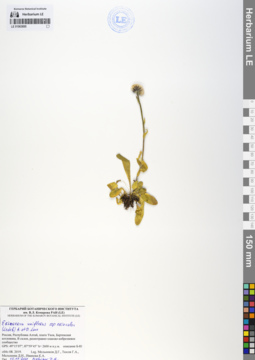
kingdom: Plantae
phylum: Tracheophyta
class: Magnoliopsida
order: Asterales
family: Asteraceae
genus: Erigeron
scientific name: Erigeron eriocalyx
